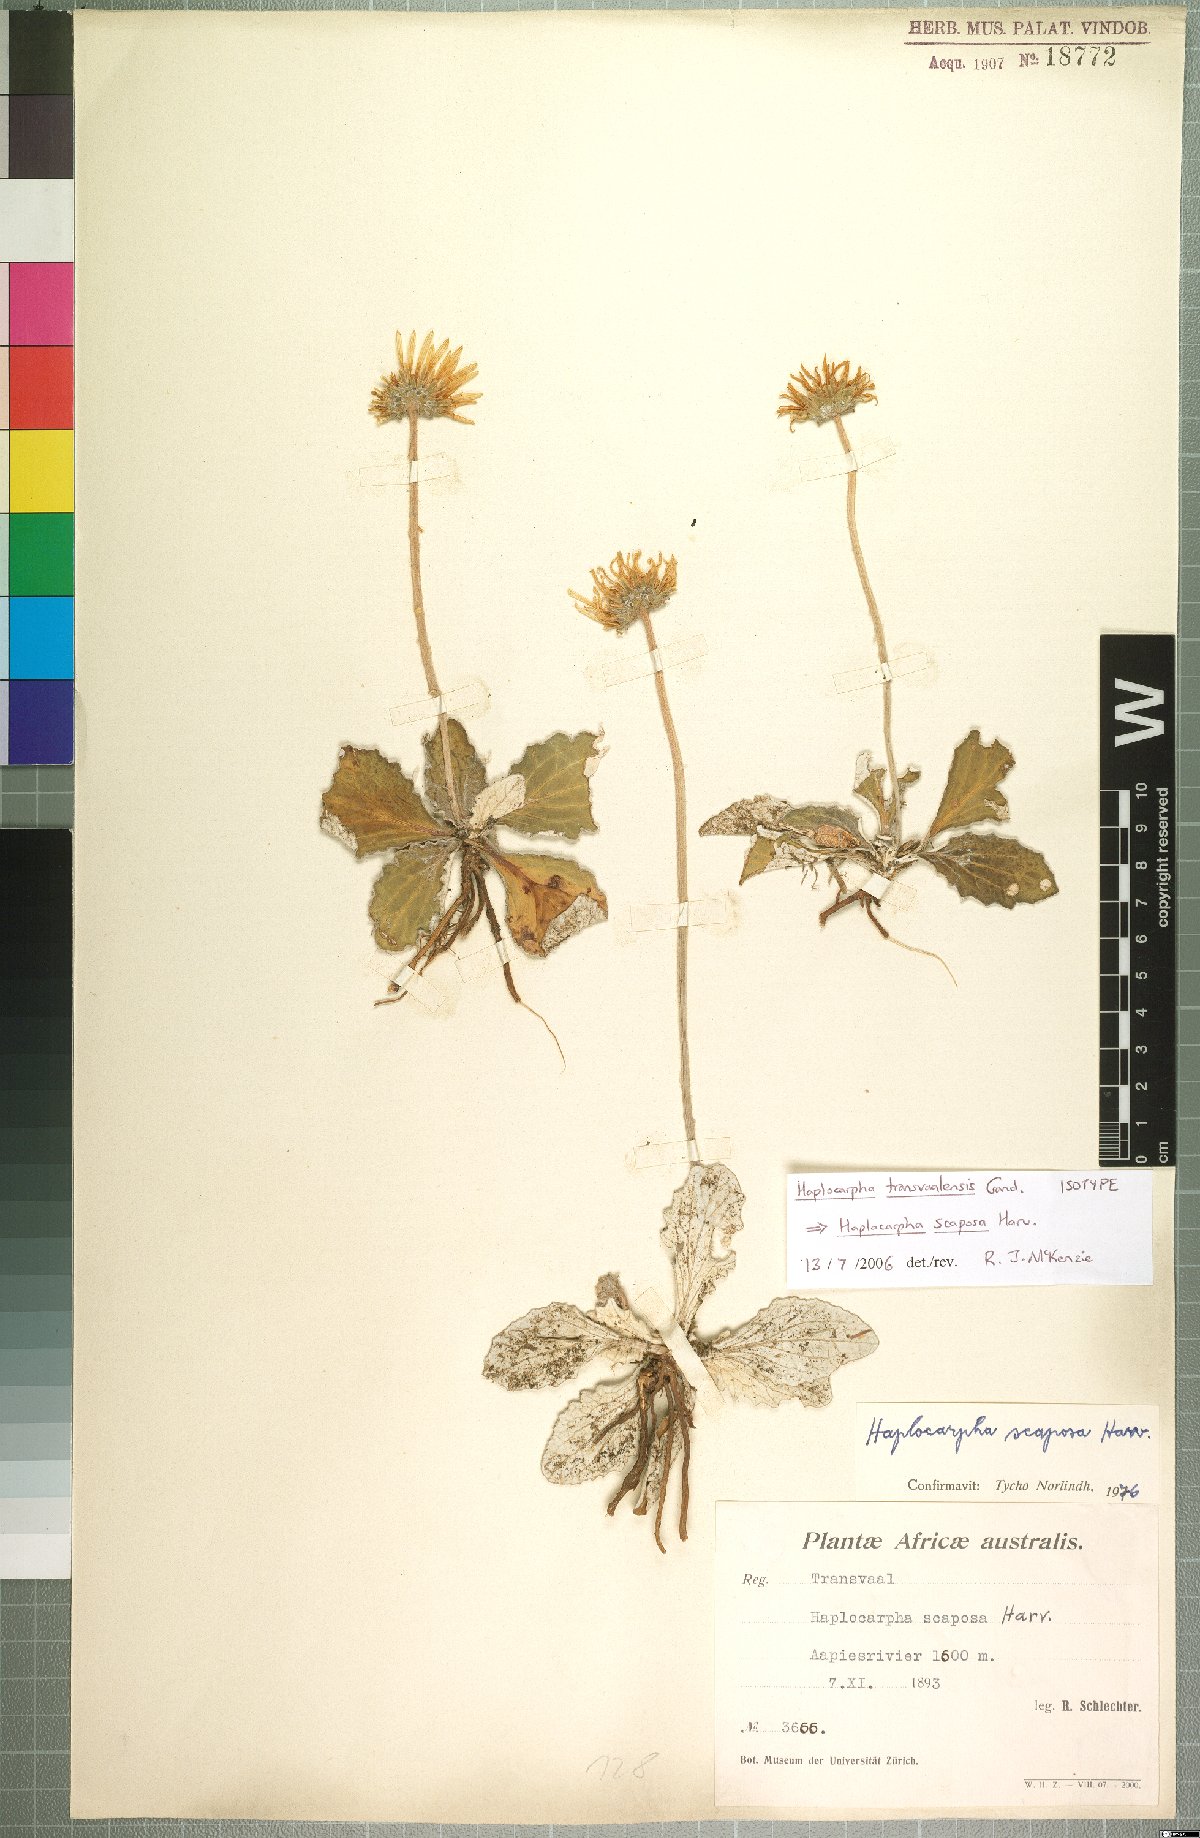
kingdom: Plantae
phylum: Tracheophyta
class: Magnoliopsida
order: Asterales
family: Asteraceae
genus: Haplocarpha
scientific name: Haplocarpha scaposa
